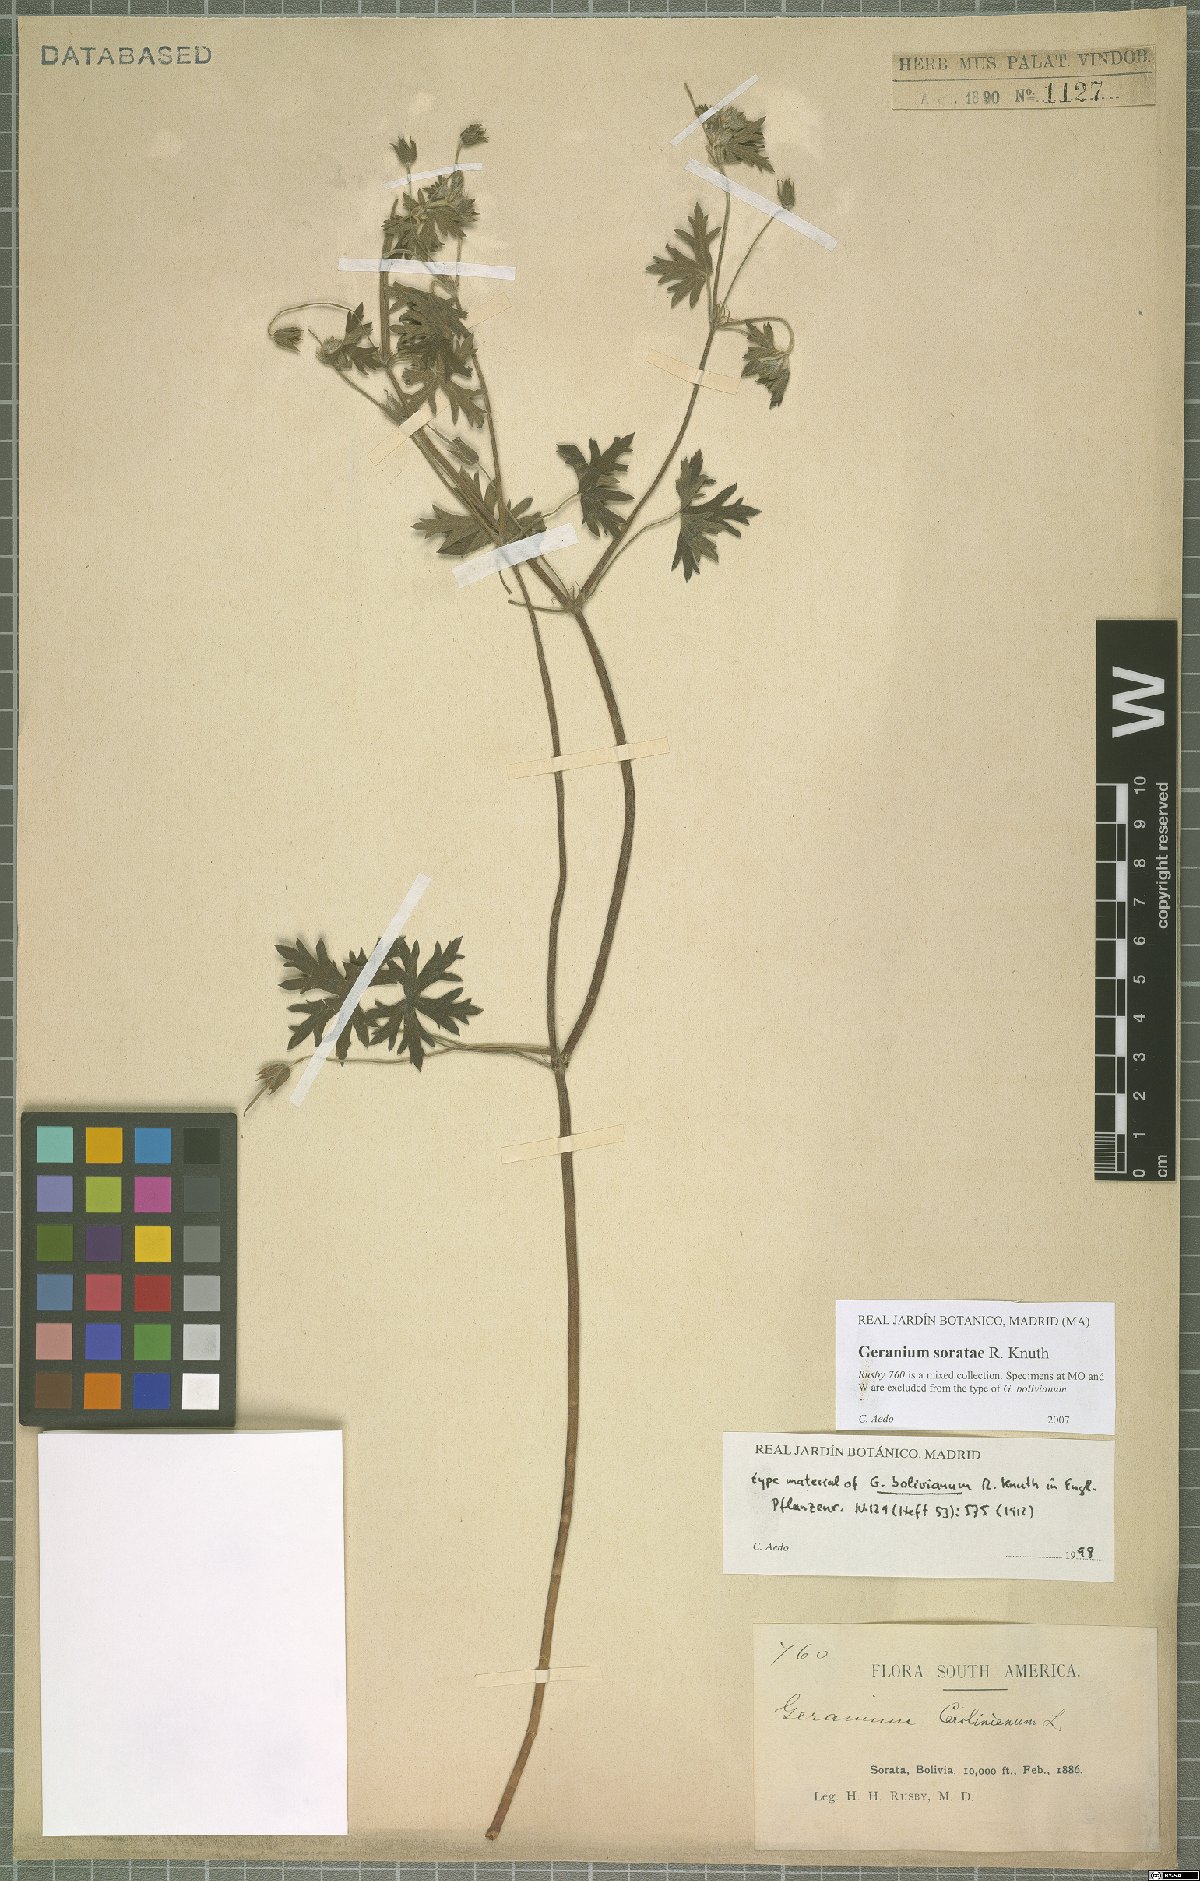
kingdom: Plantae
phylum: Tracheophyta
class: Magnoliopsida
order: Geraniales
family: Geraniaceae
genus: Geranium
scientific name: Geranium soratae
